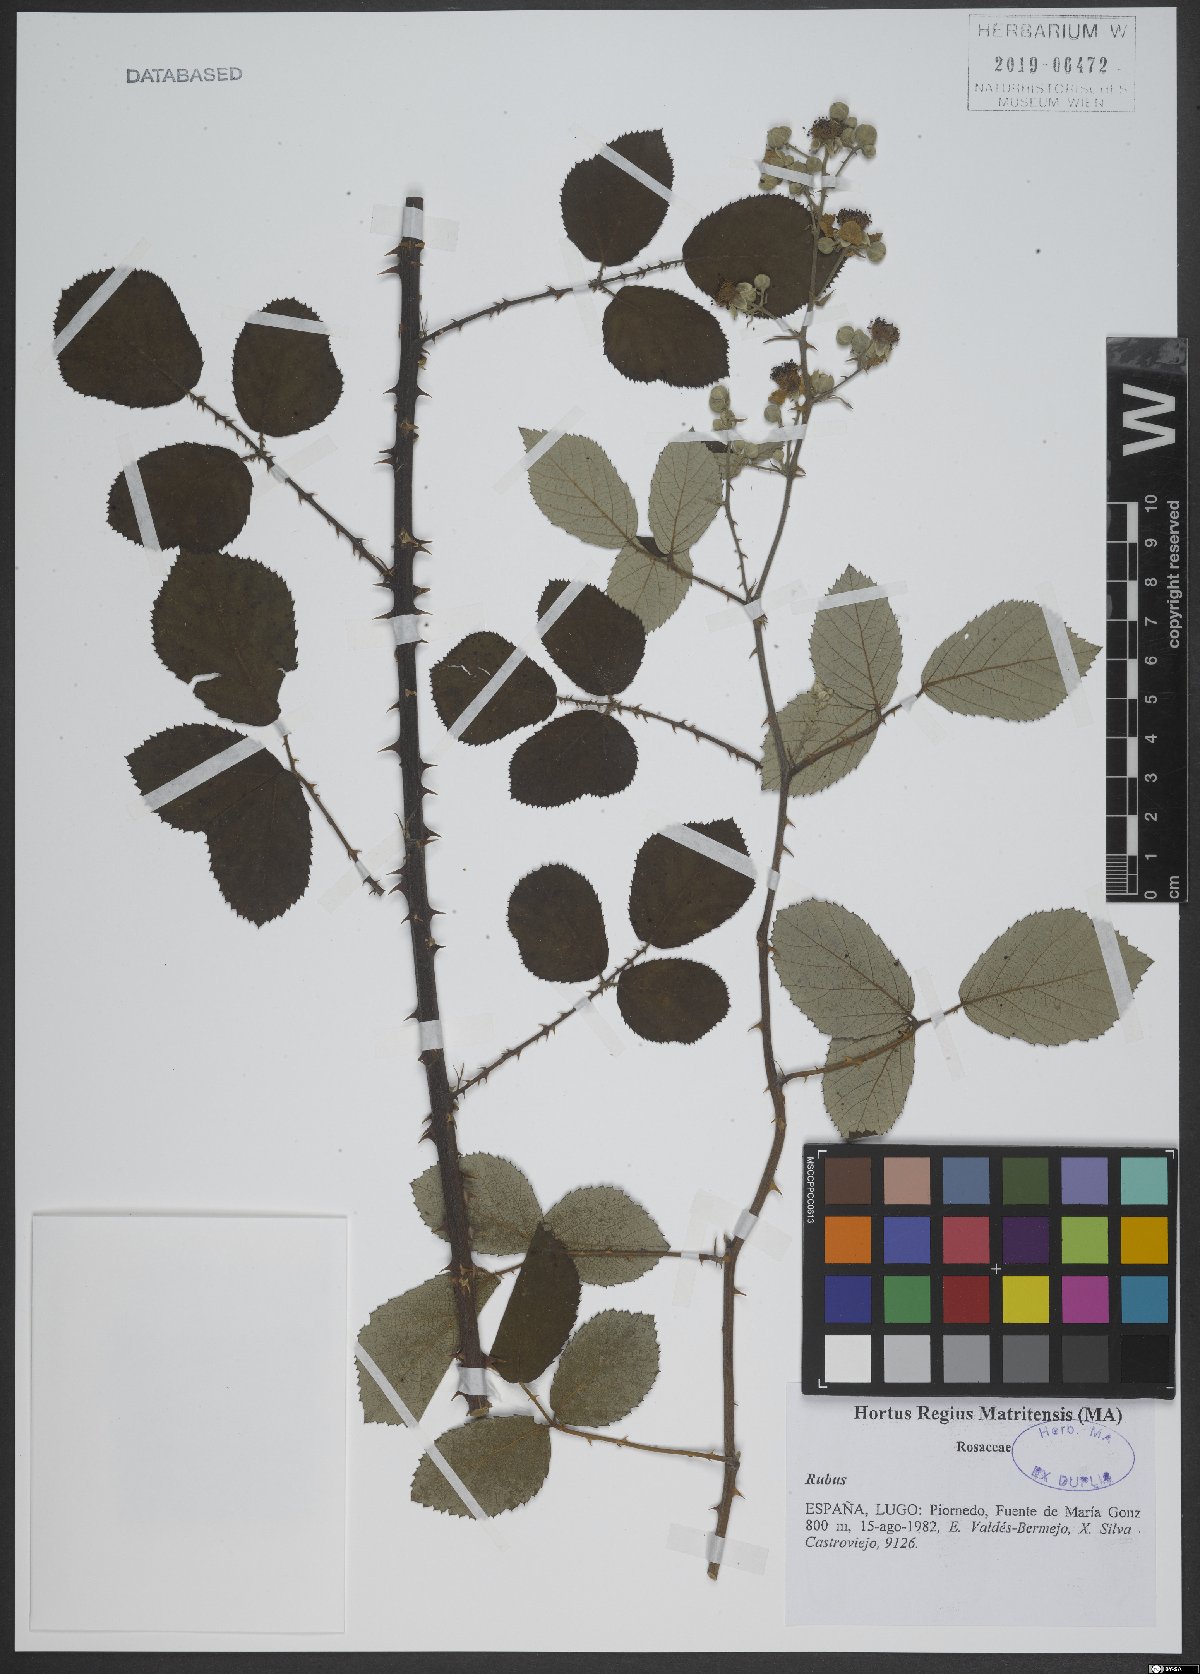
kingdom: Plantae
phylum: Tracheophyta
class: Magnoliopsida
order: Rosales
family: Rosaceae
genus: Rubus
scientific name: Rubus
